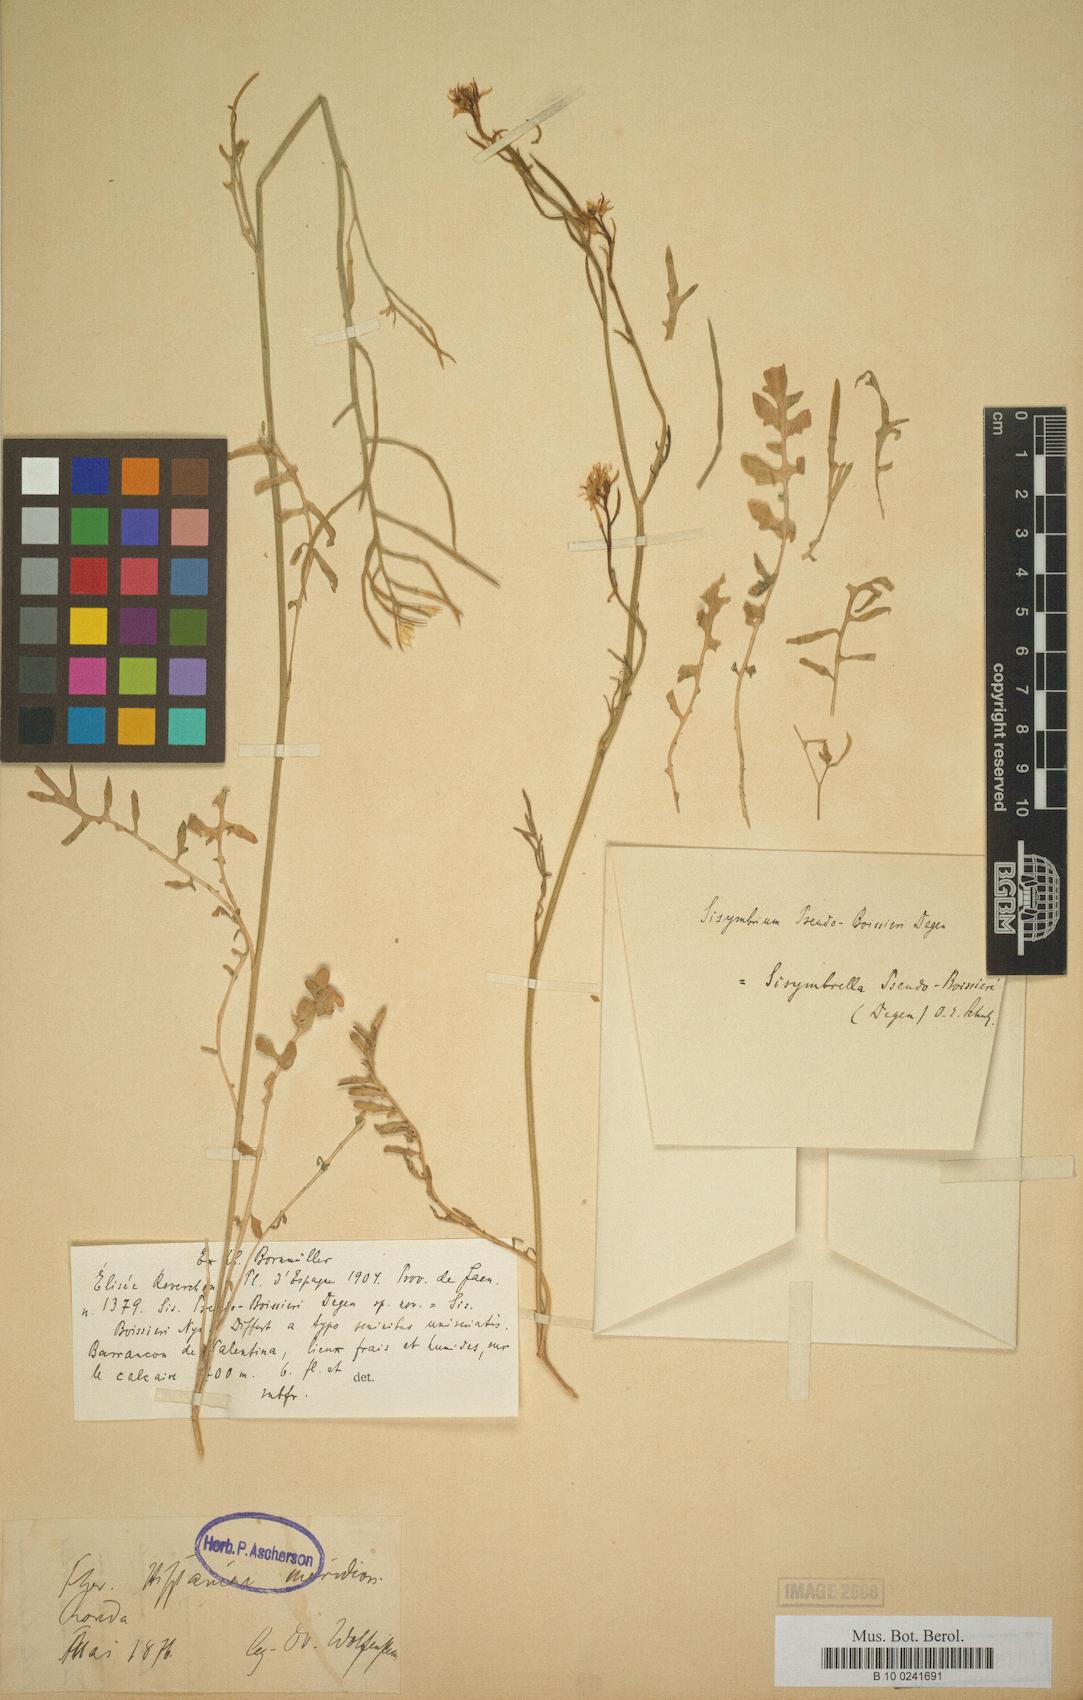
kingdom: Plantae
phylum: Tracheophyta
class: Magnoliopsida
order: Brassicales
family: Brassicaceae
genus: Sisymbrella
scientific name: Sisymbrella aspera
